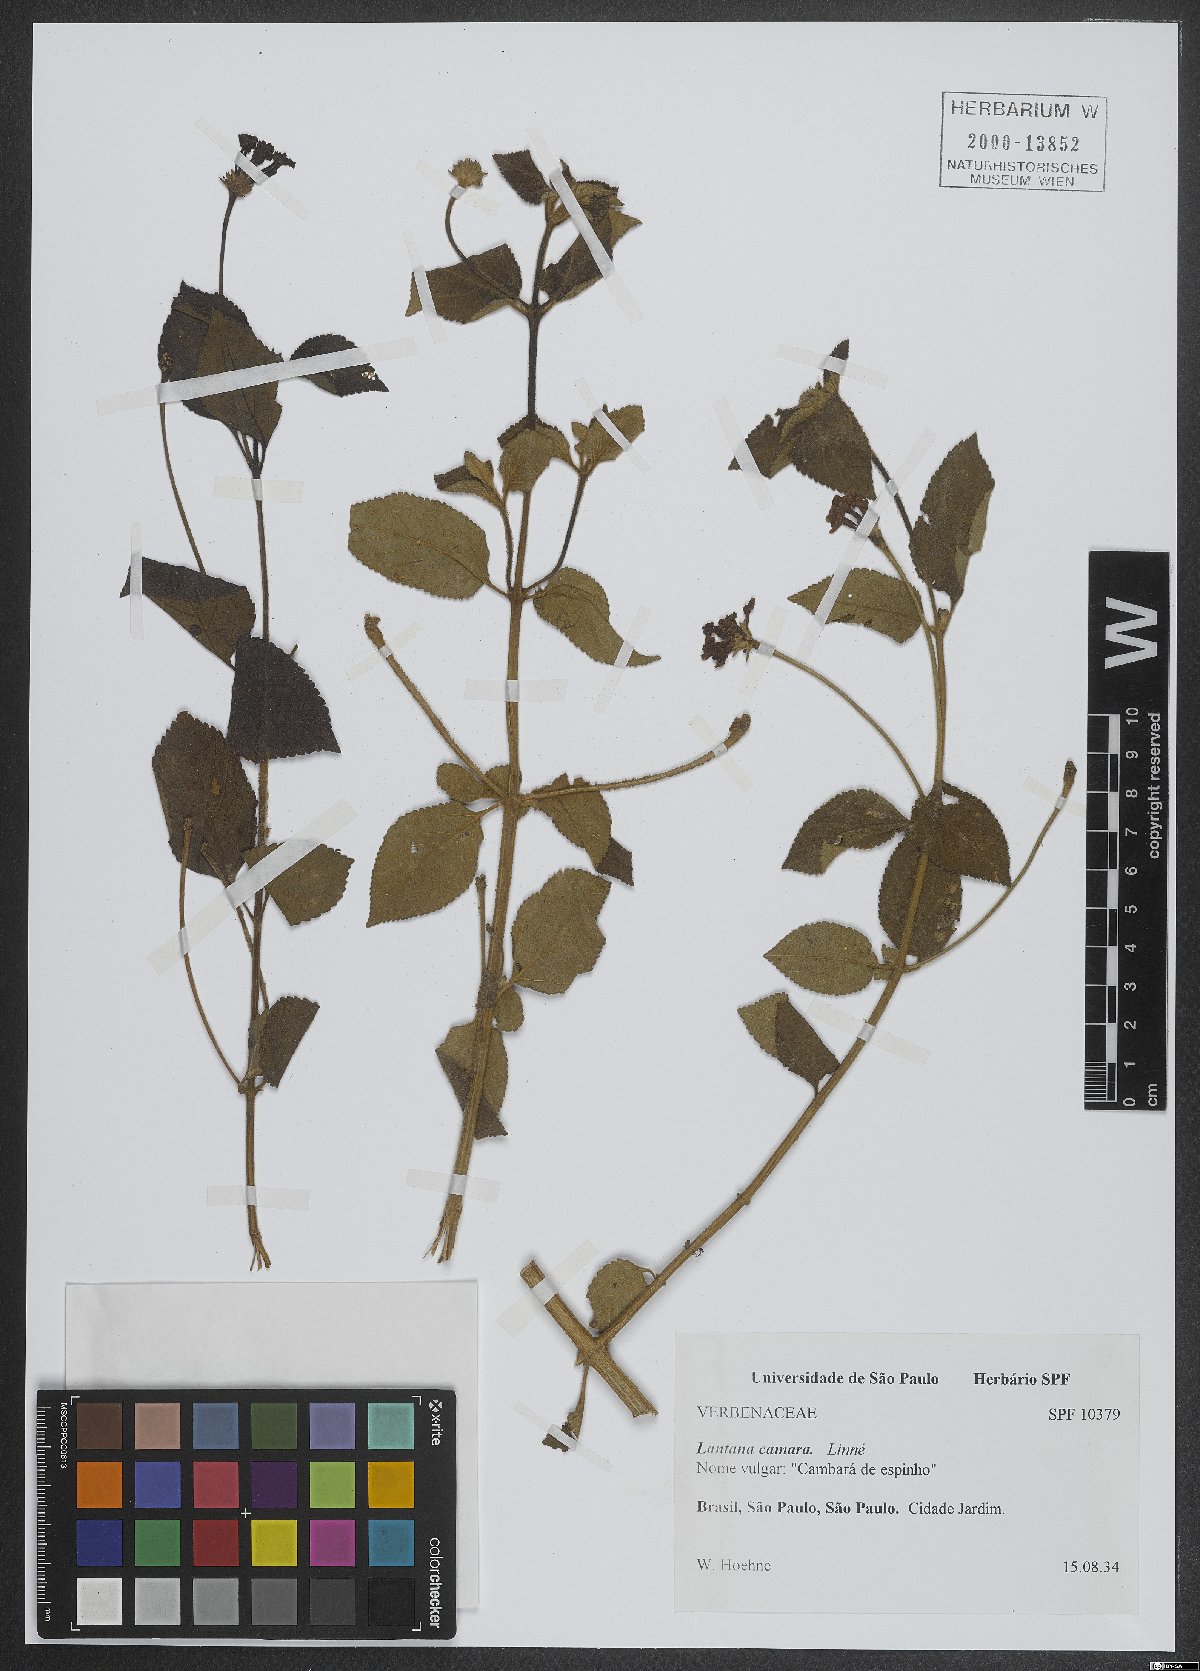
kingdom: Plantae
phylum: Tracheophyta
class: Magnoliopsida
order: Lamiales
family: Verbenaceae
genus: Lantana
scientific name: Lantana camara
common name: Lantana
